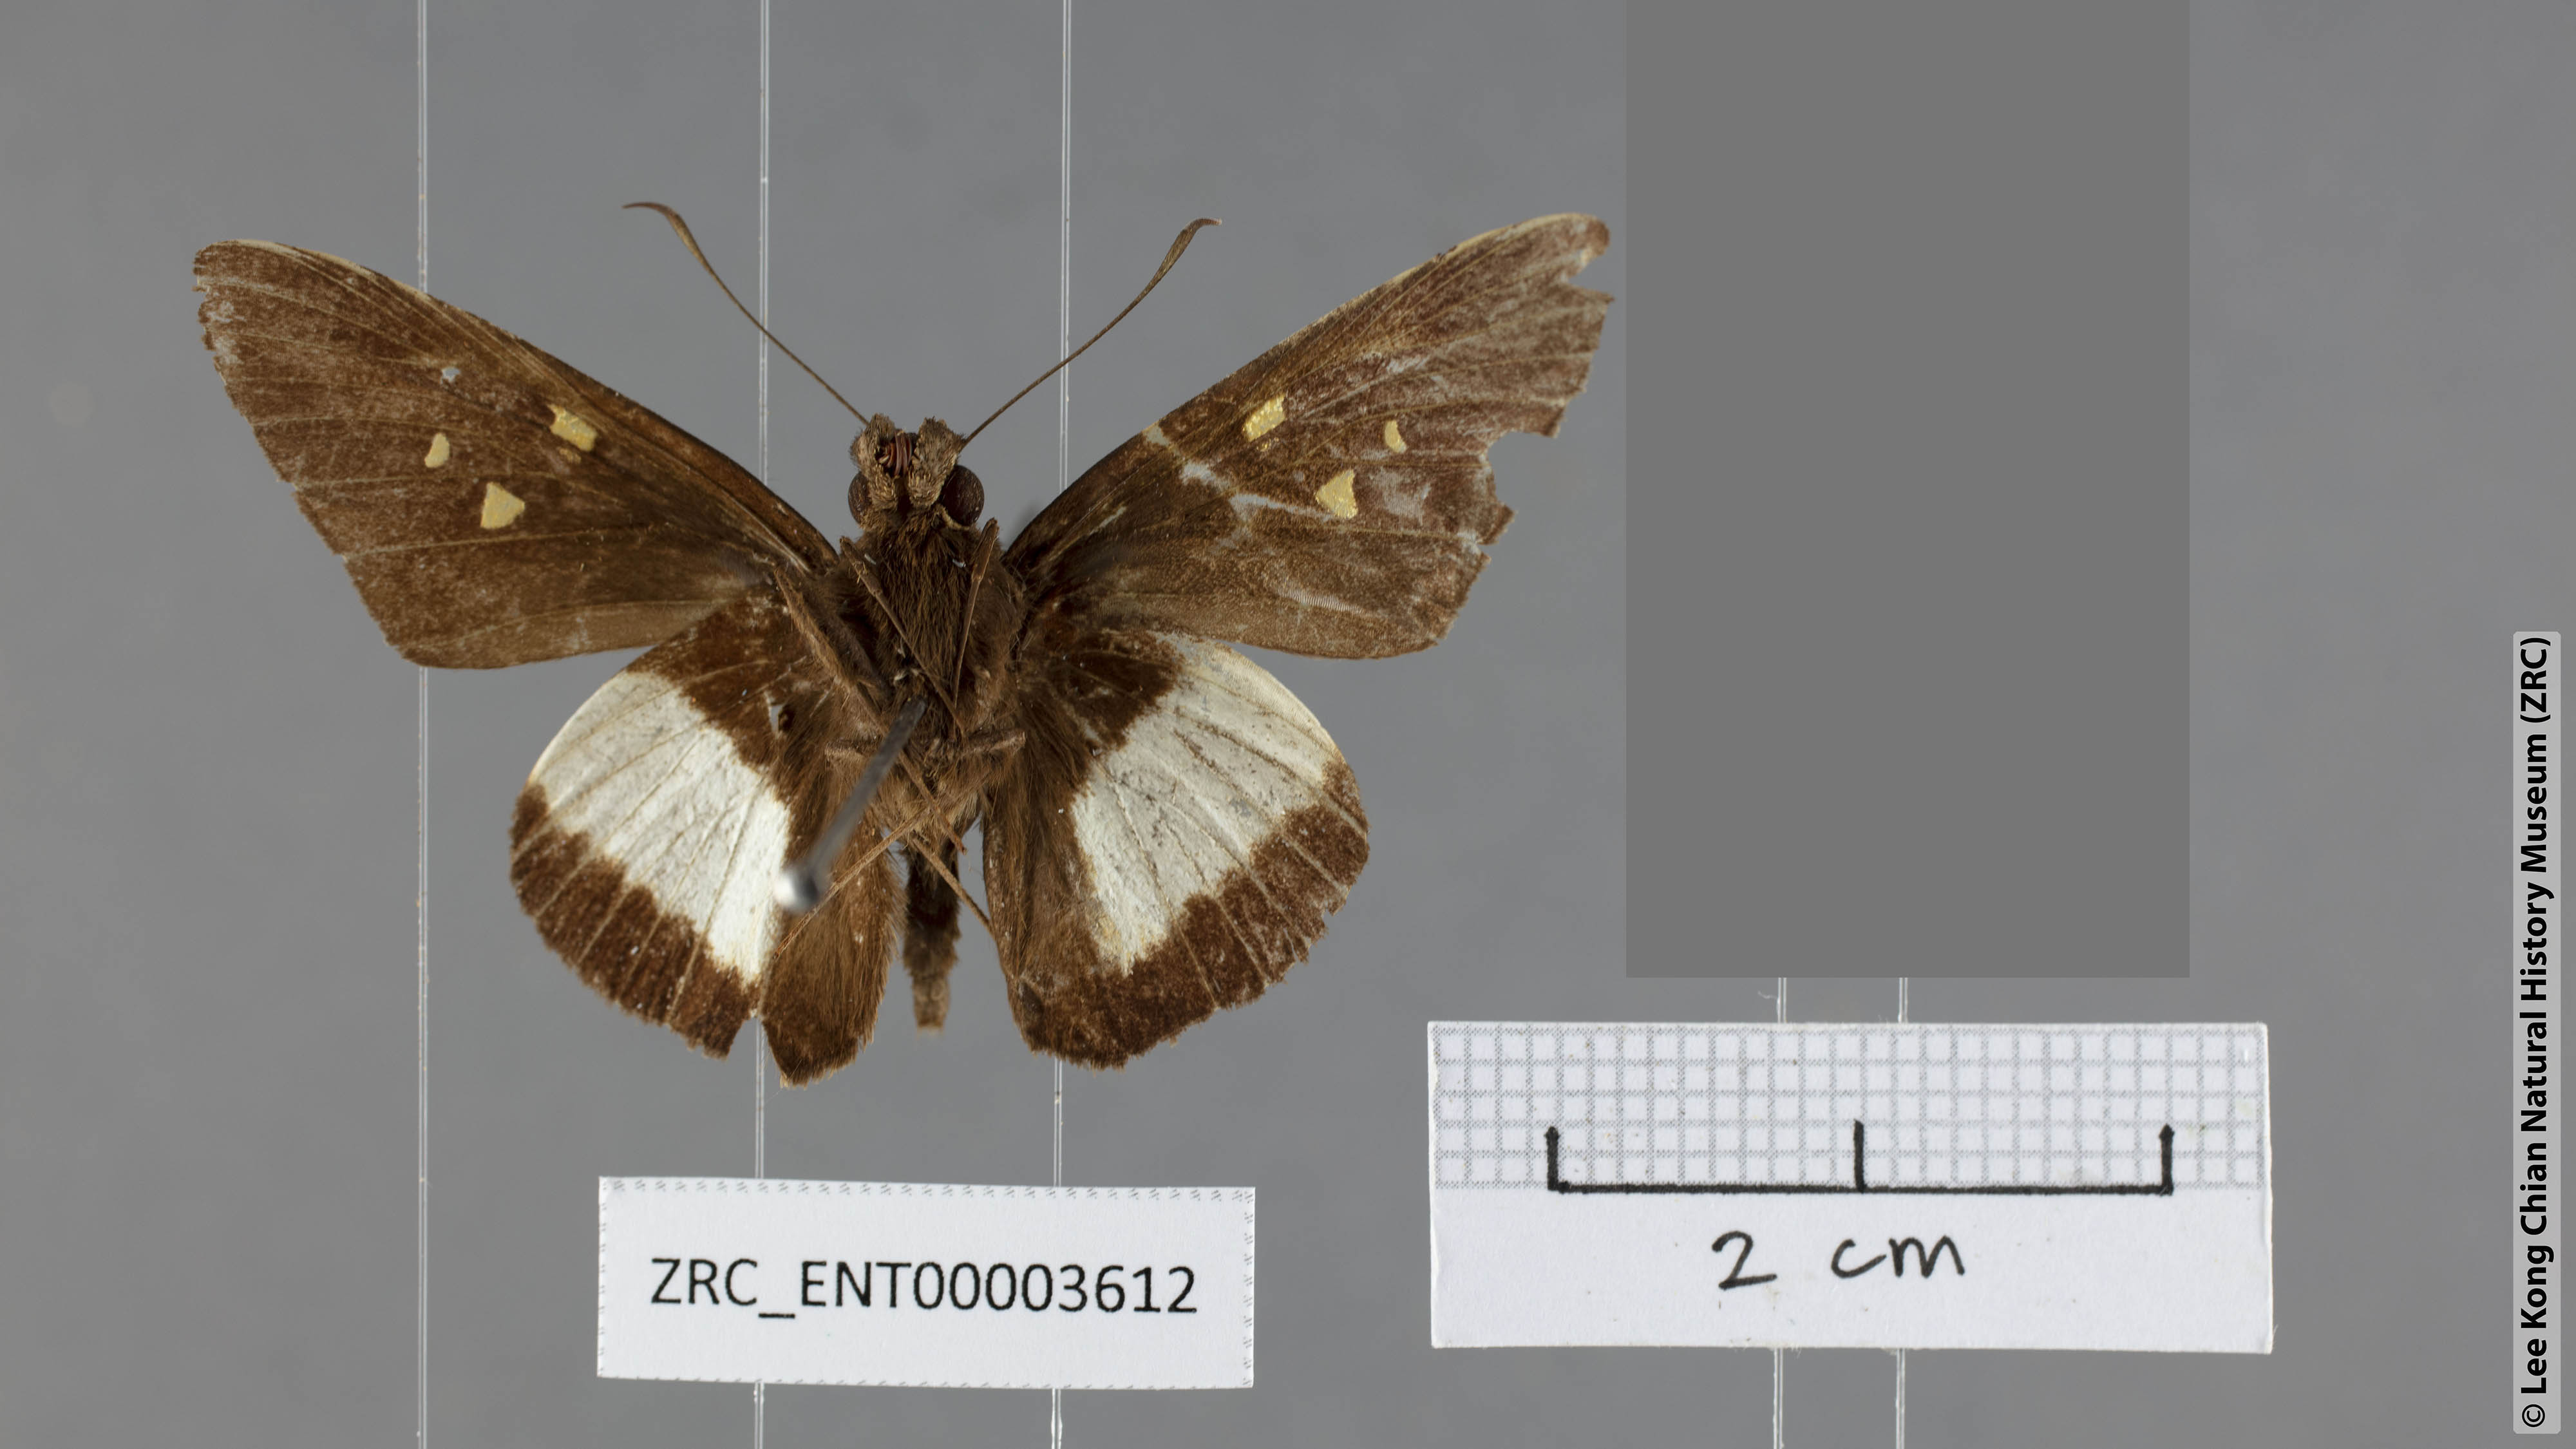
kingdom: Animalia
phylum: Arthropoda
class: Insecta
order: Lepidoptera
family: Hesperiidae
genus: Unkana
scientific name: Unkana mytheca
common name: Silver and yellow palmer
